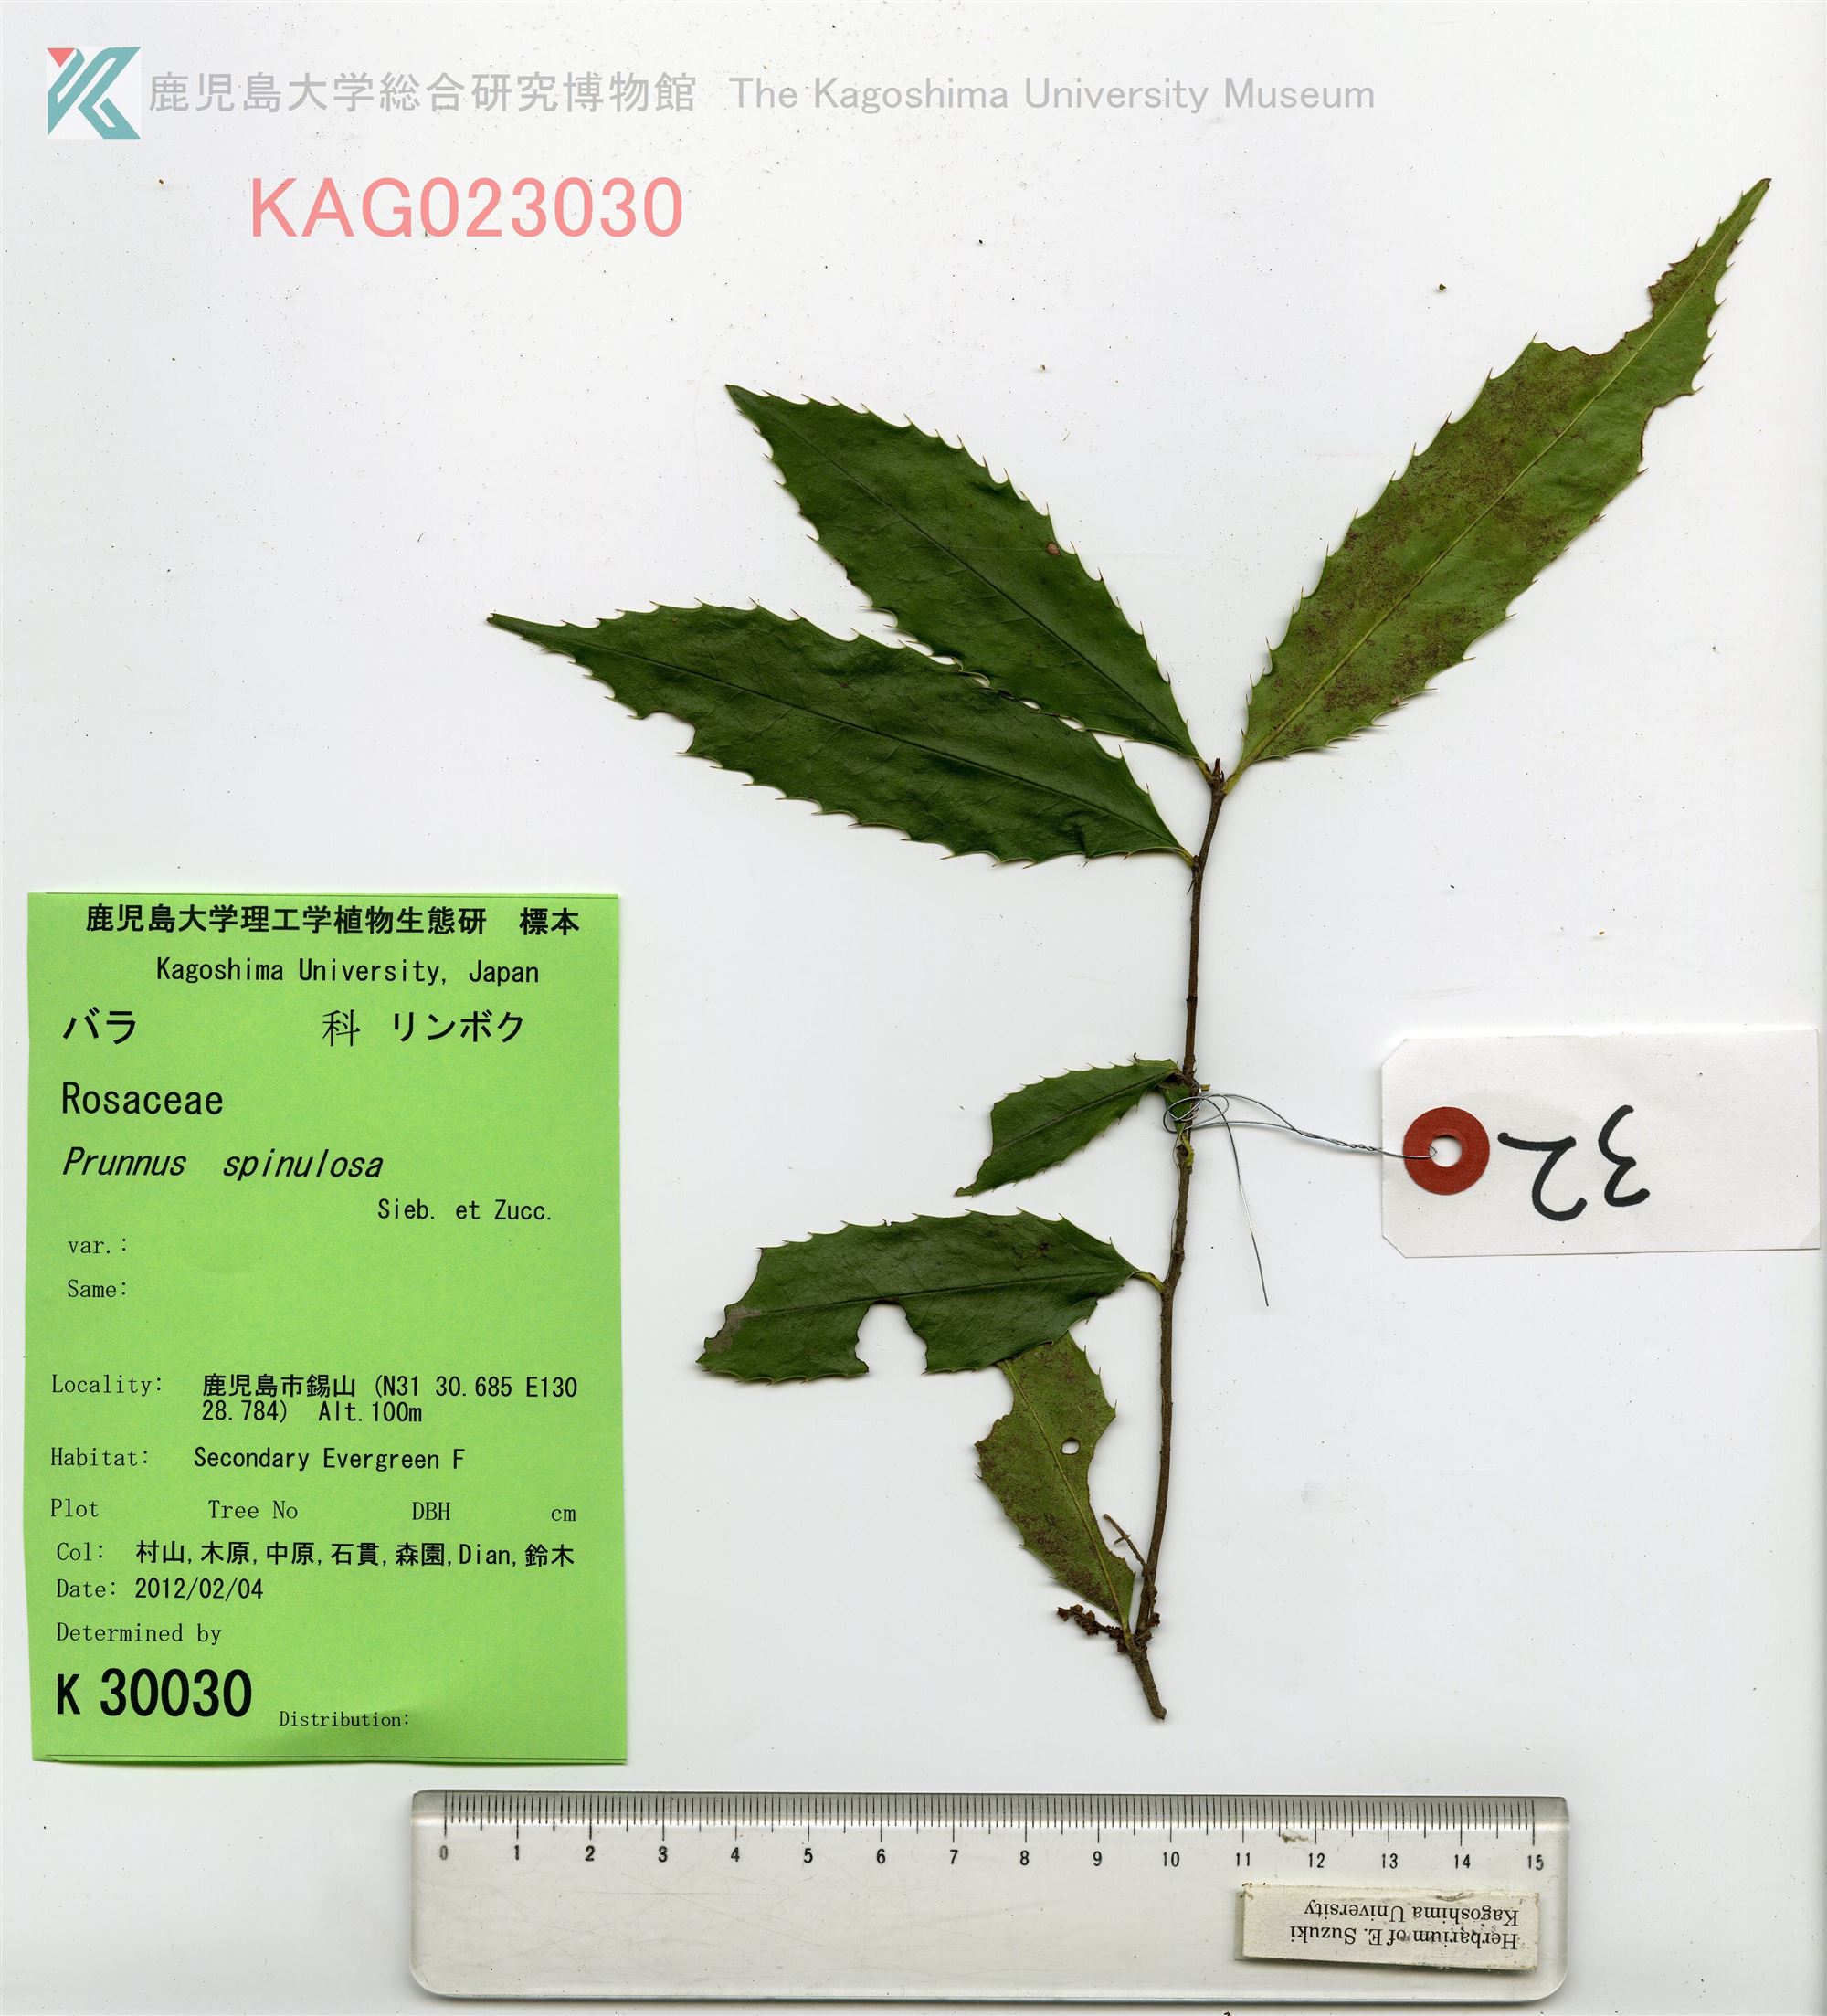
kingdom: Plantae
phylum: Tracheophyta
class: Magnoliopsida
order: Rosales
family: Rosaceae
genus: Prunus
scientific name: Prunus spinulosa
